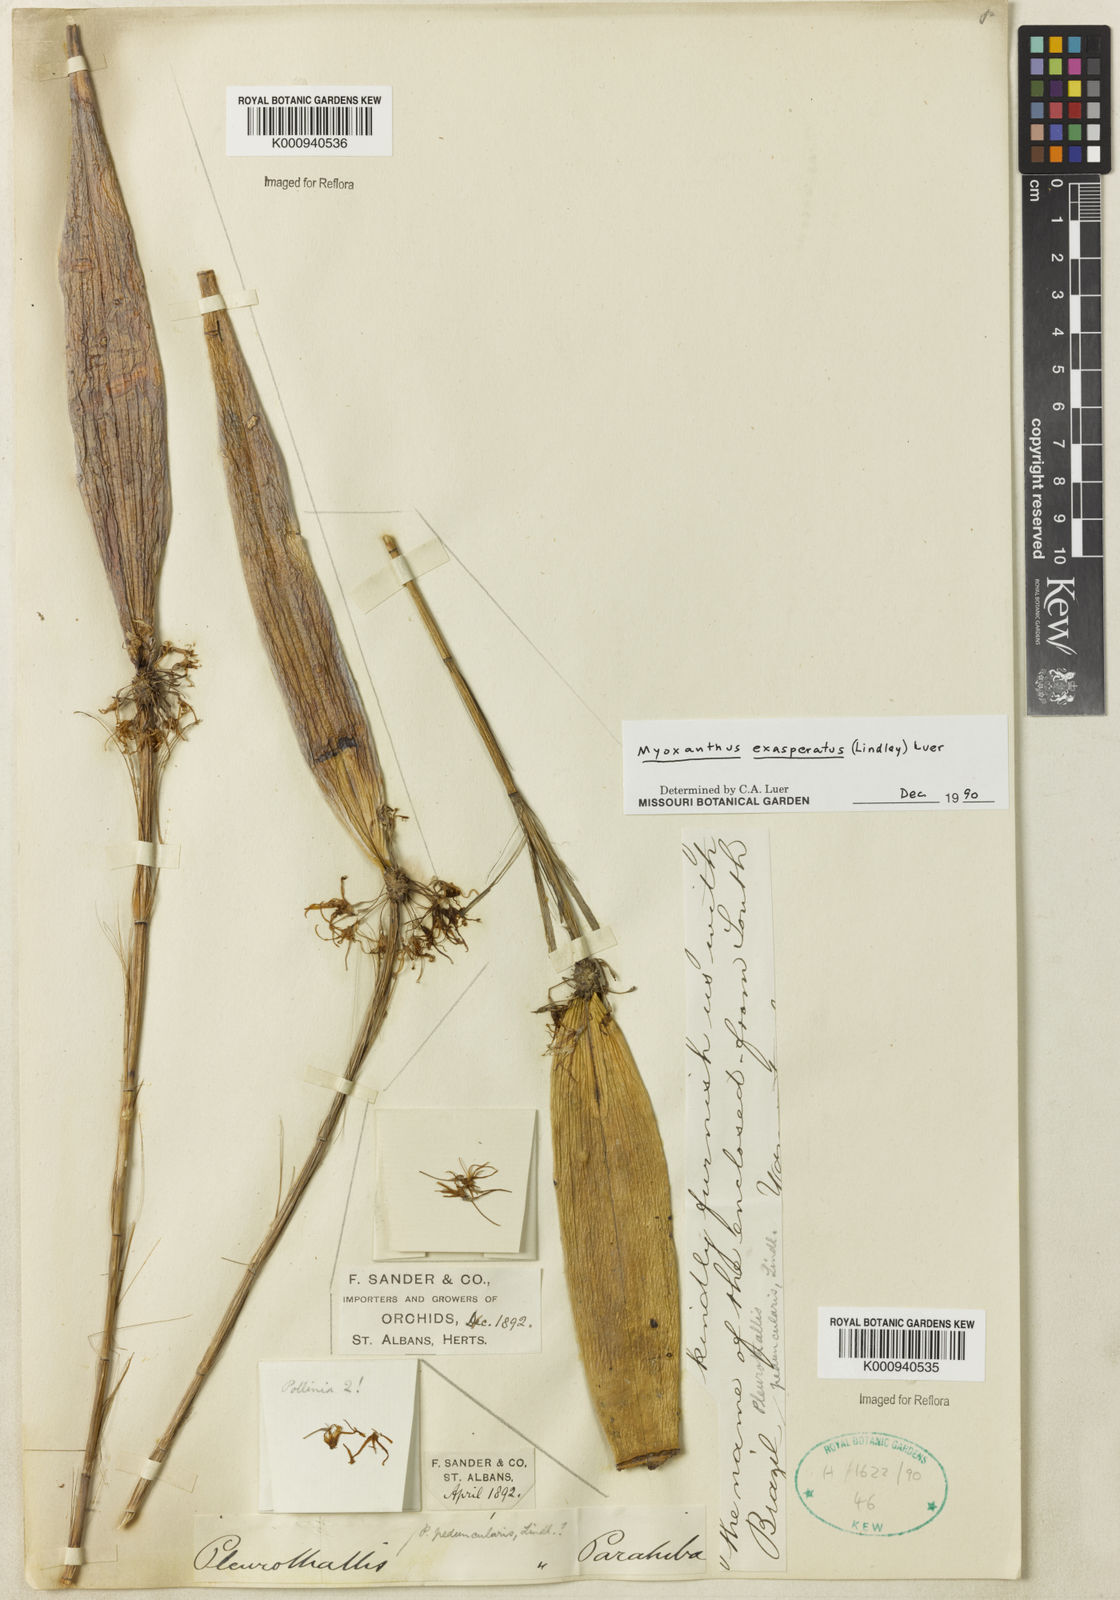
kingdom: Plantae
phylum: Tracheophyta
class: Liliopsida
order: Asparagales
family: Orchidaceae
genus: Myoxanthus
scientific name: Myoxanthus exasperatus
